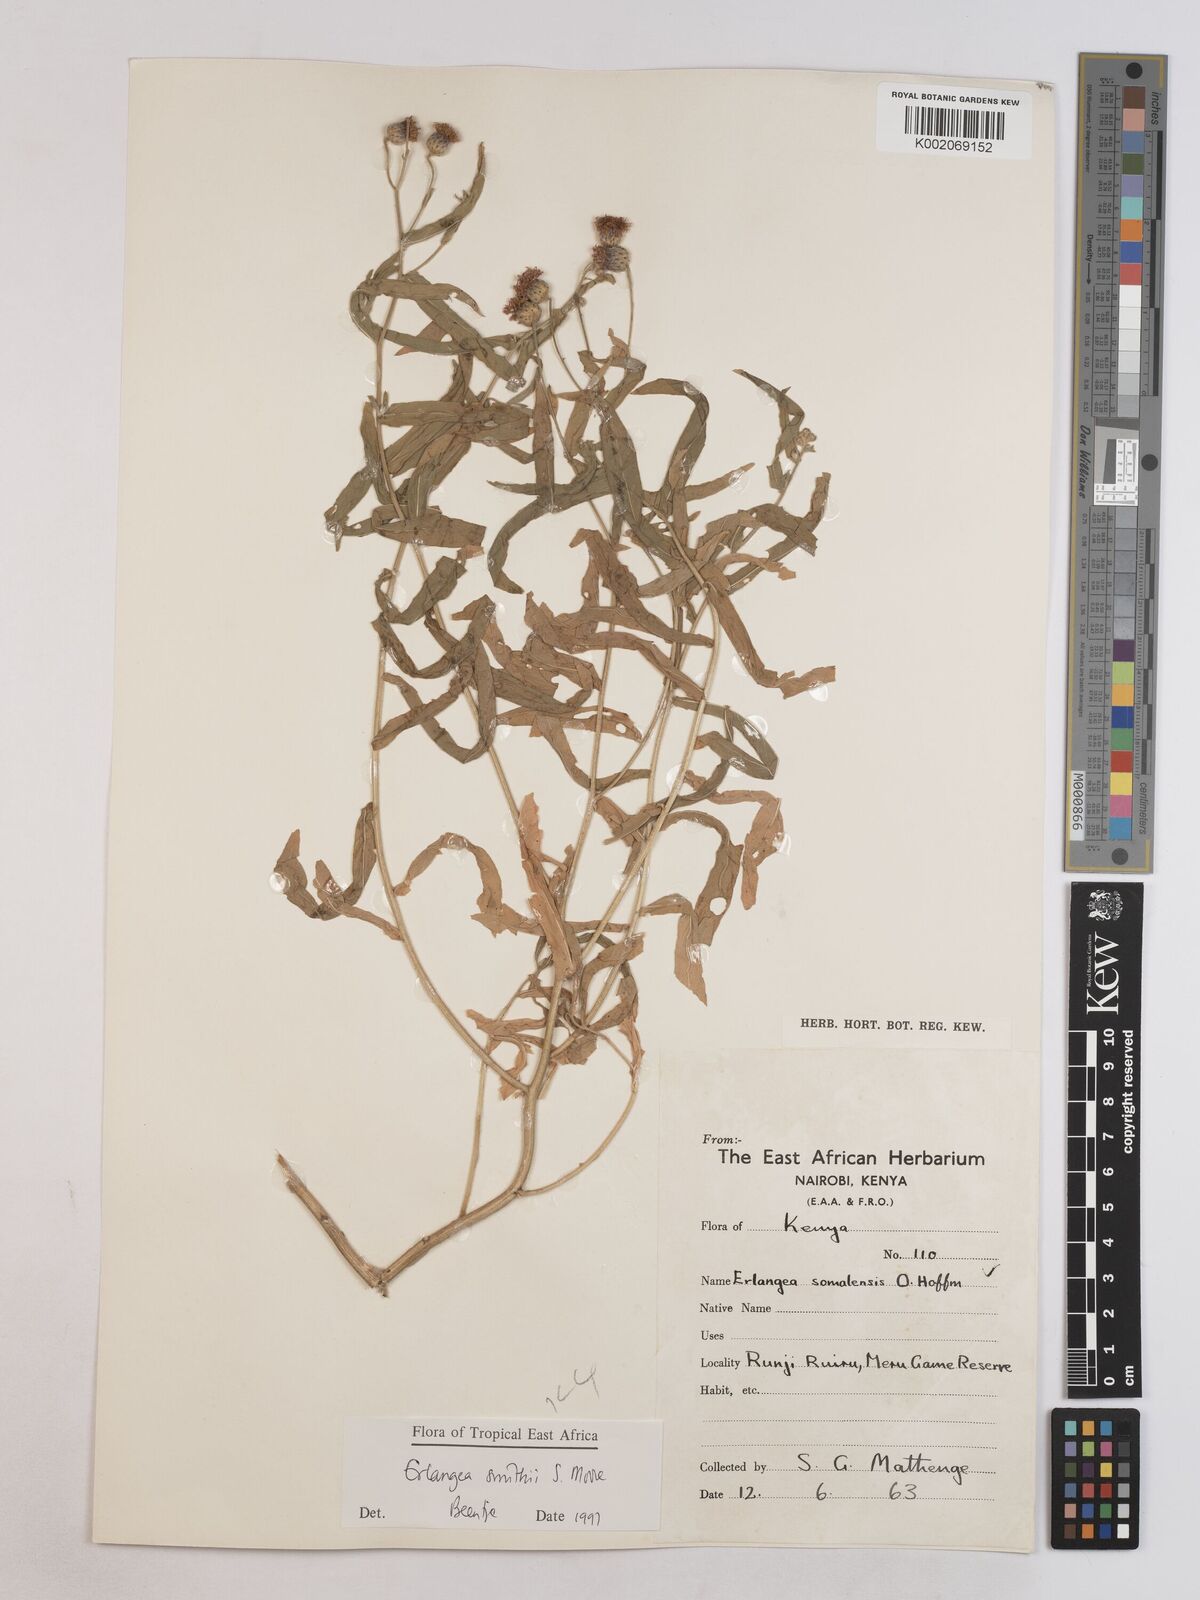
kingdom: Plantae
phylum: Tracheophyta
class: Magnoliopsida
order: Asterales
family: Asteraceae
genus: Erlangea
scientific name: Erlangea smithii
